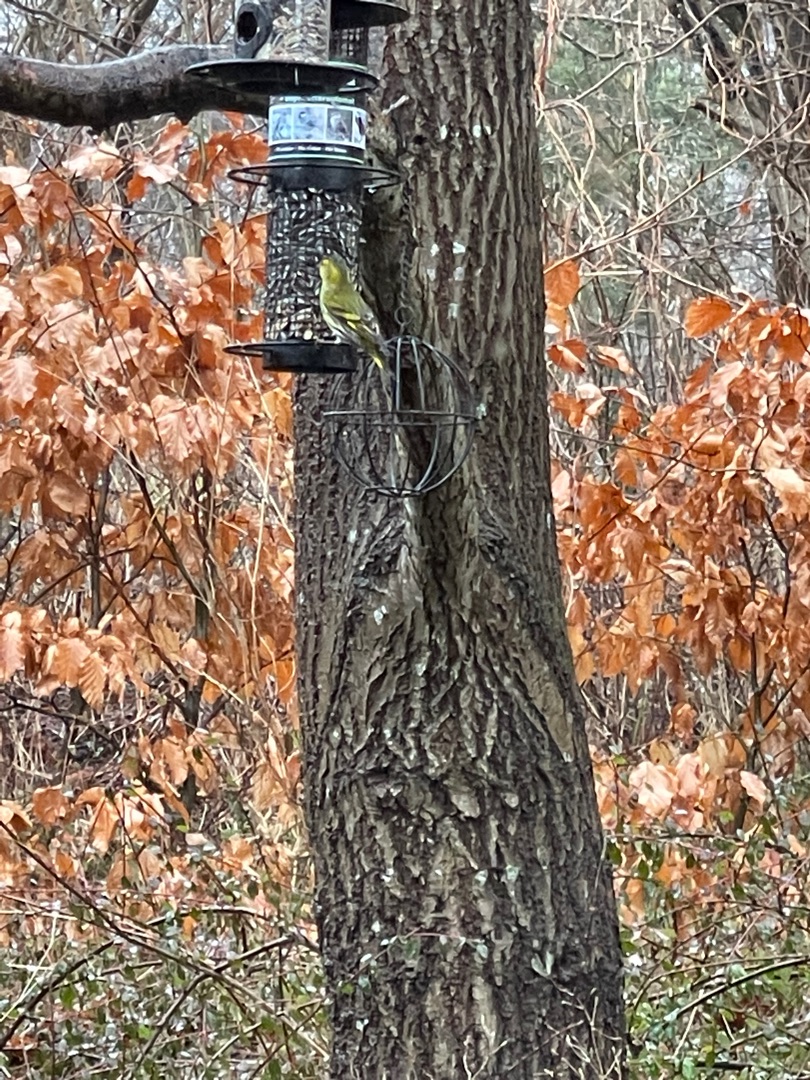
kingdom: Animalia
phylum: Chordata
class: Aves
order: Passeriformes
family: Fringillidae
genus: Spinus
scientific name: Spinus spinus
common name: Grønsisken
